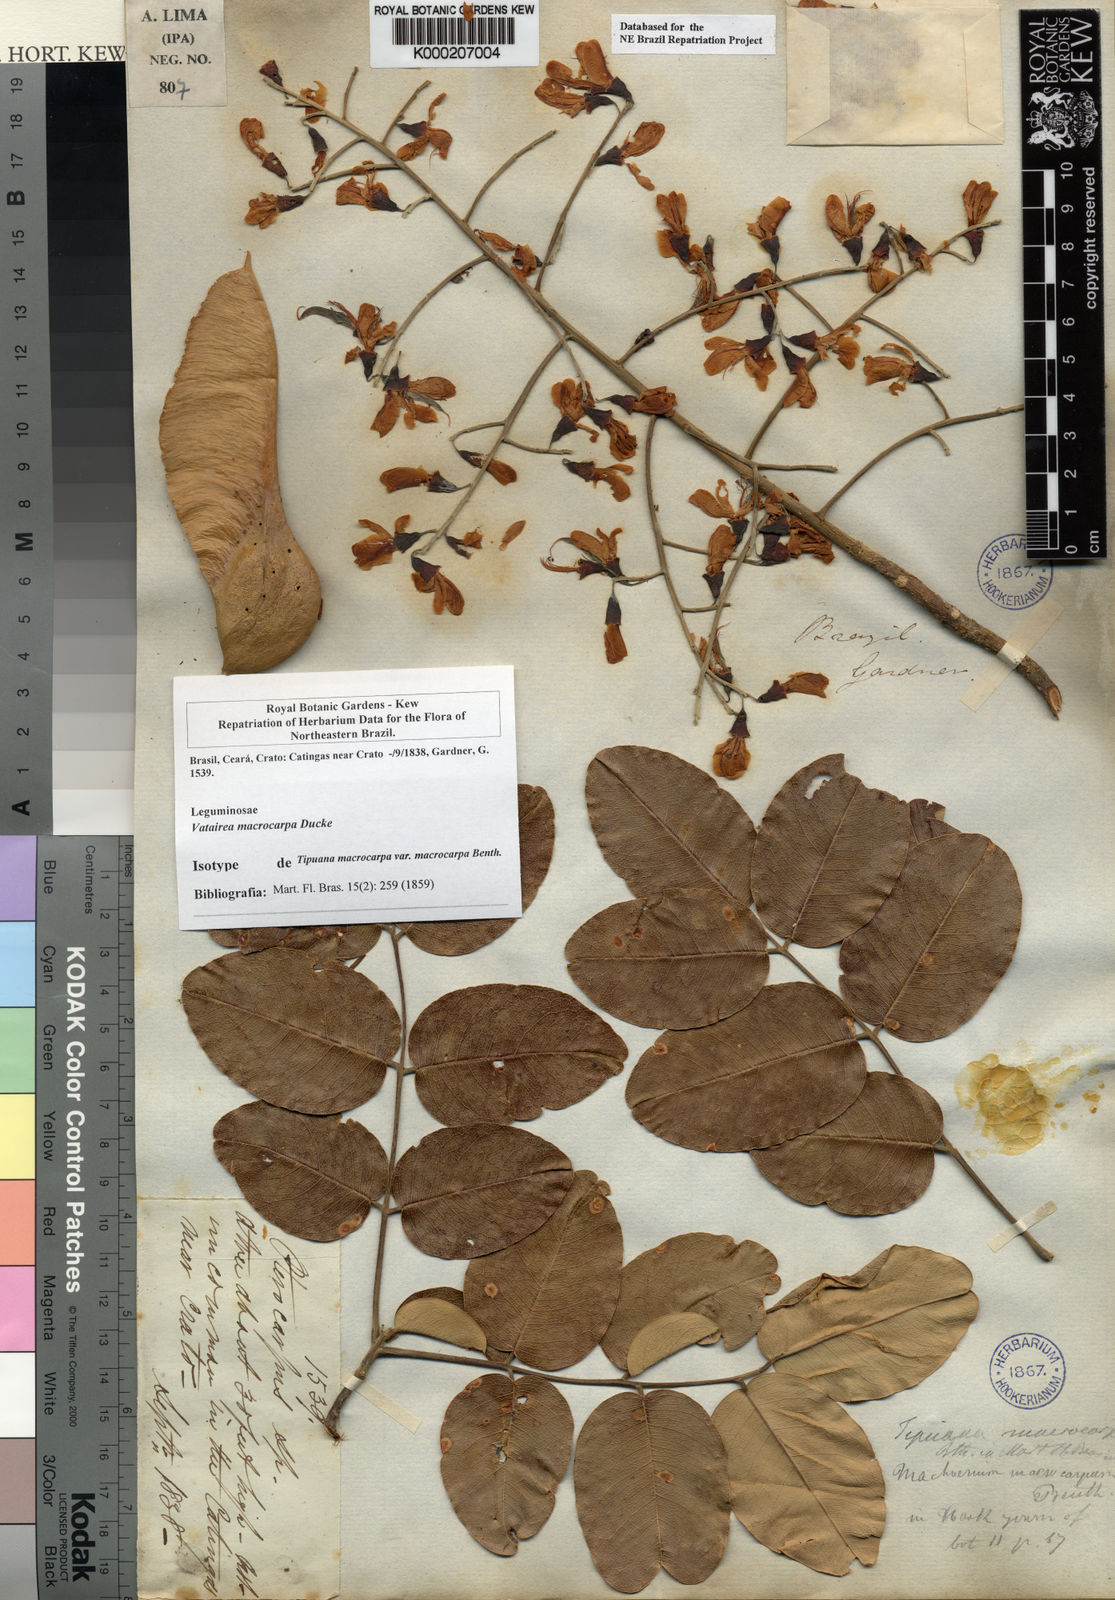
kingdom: Plantae
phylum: Tracheophyta
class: Magnoliopsida
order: Fabales
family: Fabaceae
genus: Vatairea
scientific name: Vatairea macrocarpa
